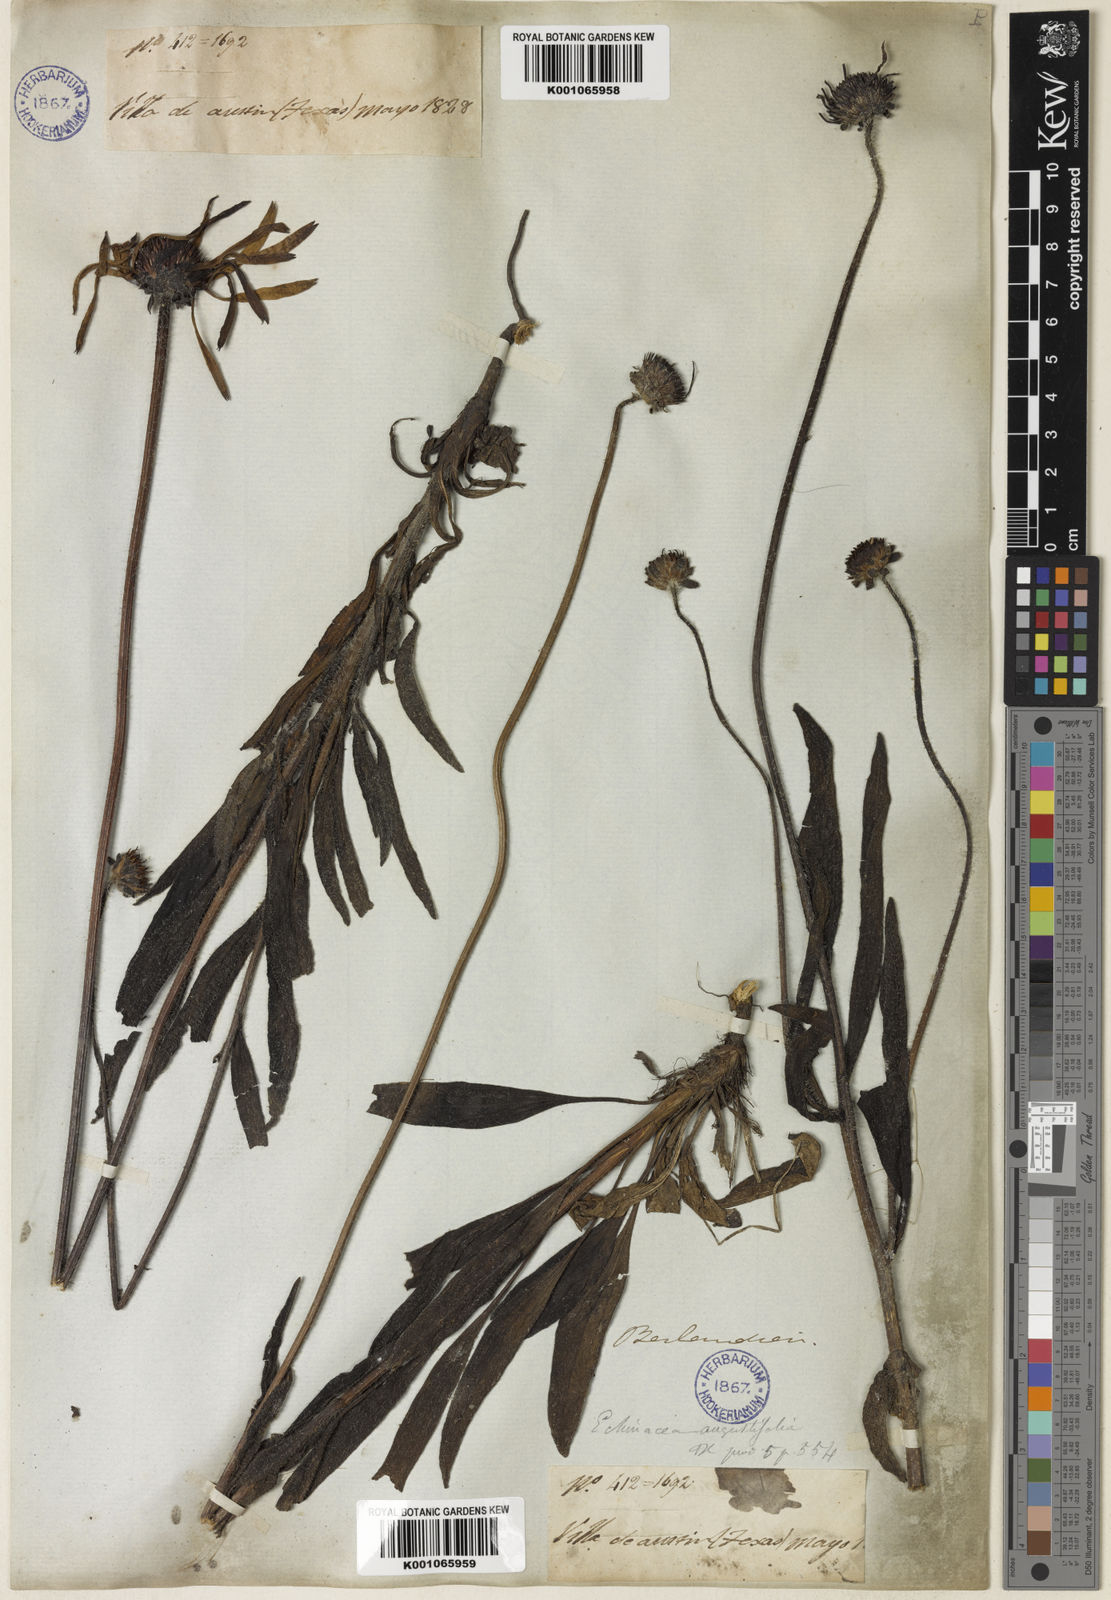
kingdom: Plantae
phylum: Tracheophyta
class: Magnoliopsida
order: Asterales
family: Asteraceae
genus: Echinacea
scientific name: Echinacea angustifolia
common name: Black-sampson echinacea
